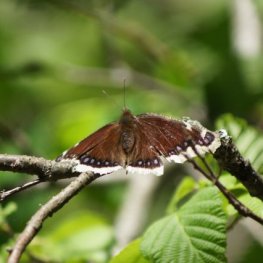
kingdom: Animalia
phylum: Arthropoda
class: Insecta
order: Lepidoptera
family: Nymphalidae
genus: Nymphalis
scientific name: Nymphalis antiopa
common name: Mourning Cloak
